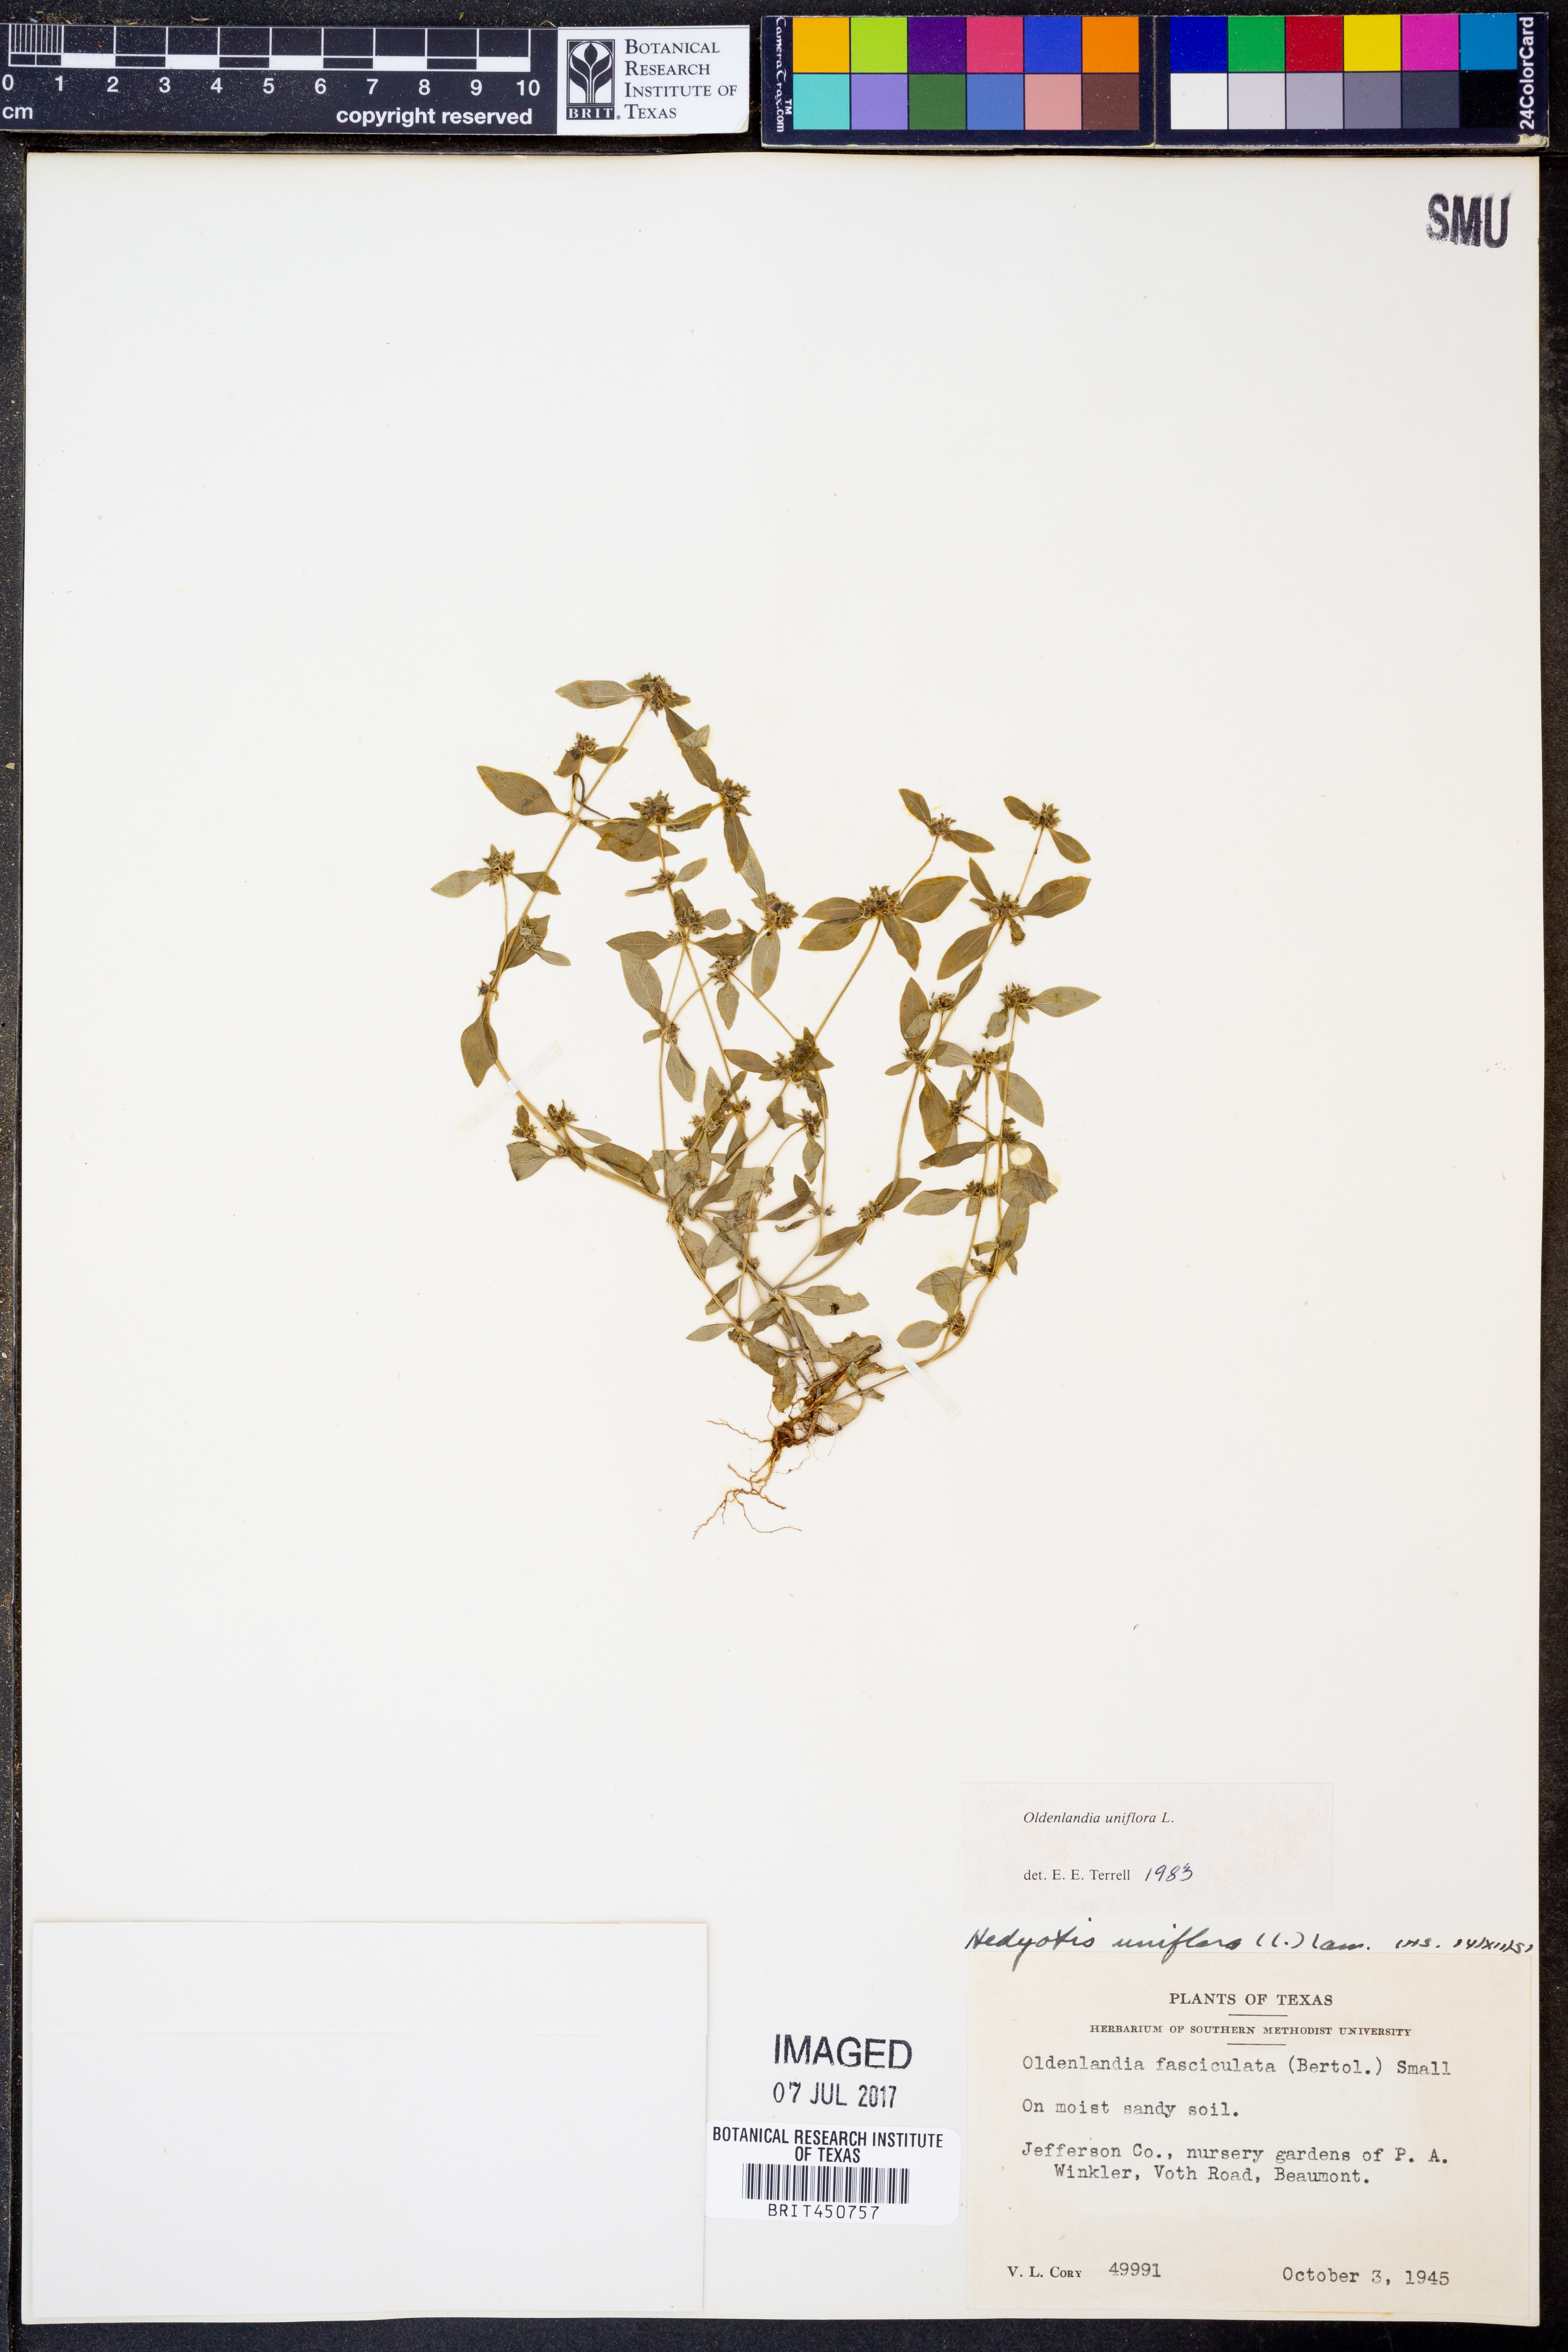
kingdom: Plantae
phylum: Tracheophyta
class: Magnoliopsida
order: Gentianales
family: Rubiaceae
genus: Edrastima
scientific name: Edrastima uniflora
